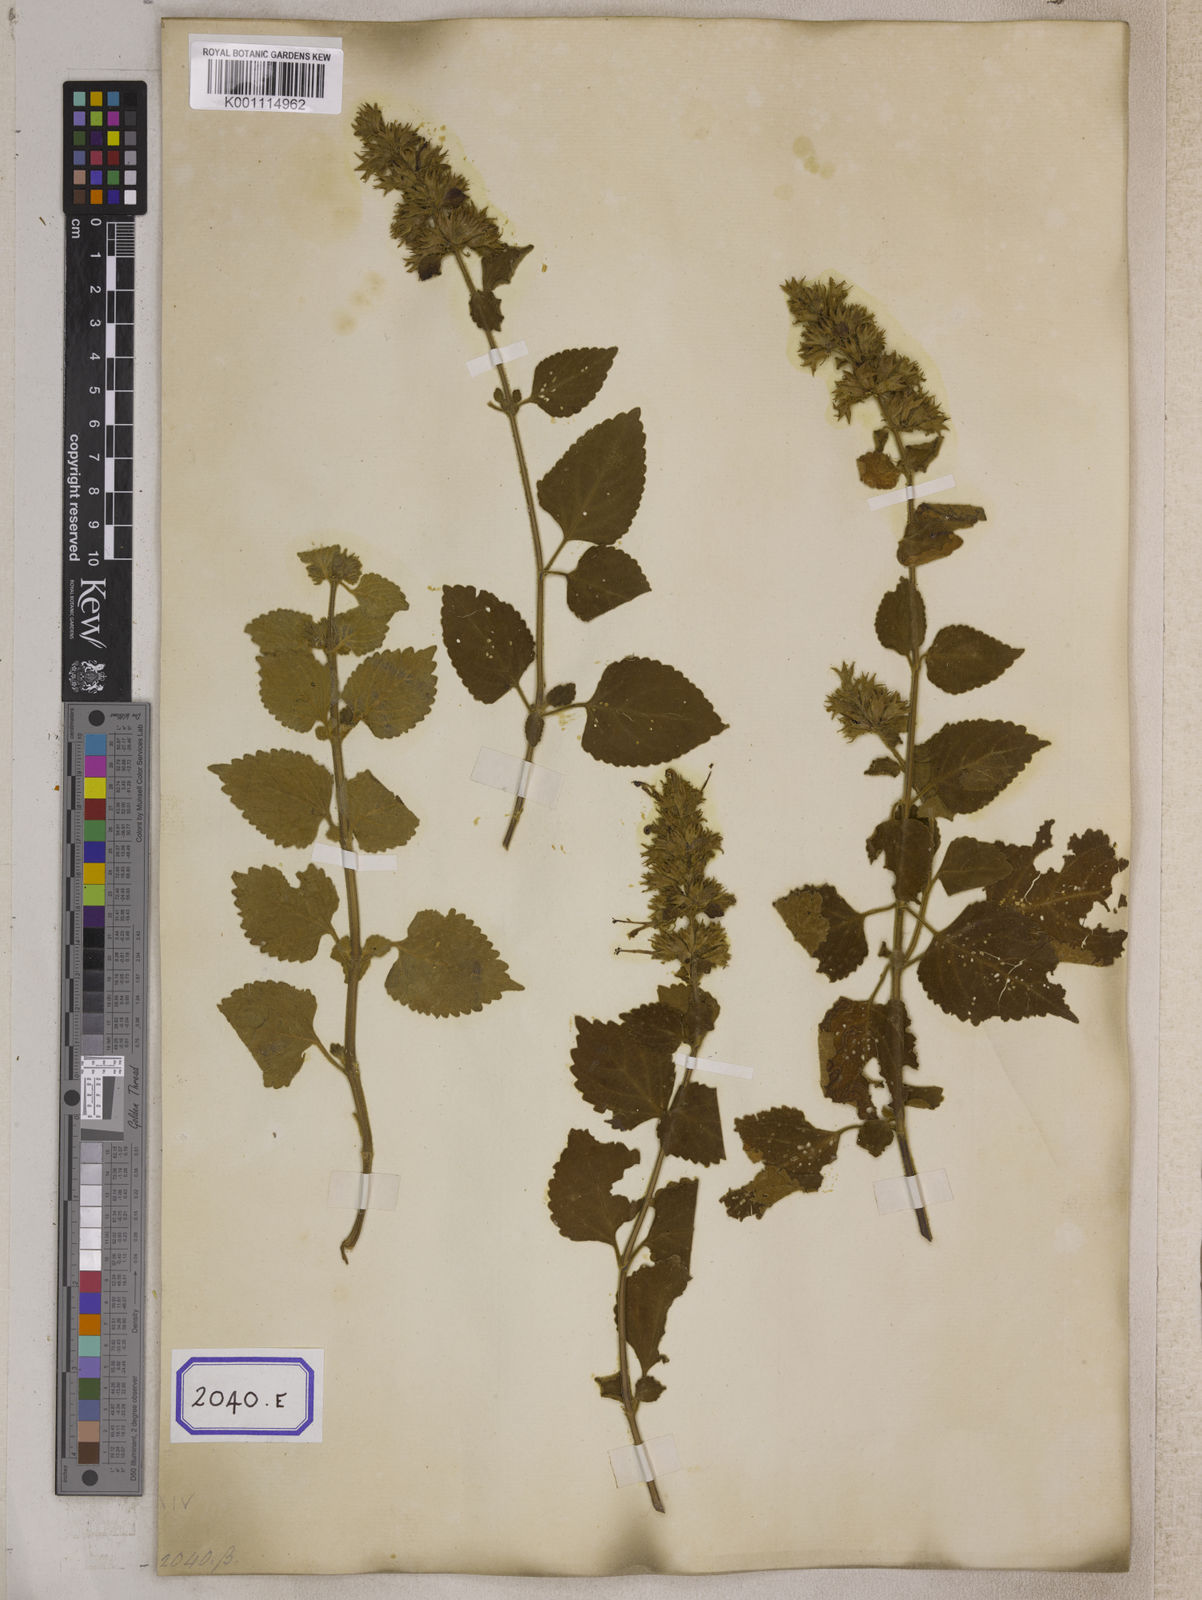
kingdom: Plantae
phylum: Tracheophyta
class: Magnoliopsida
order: Lamiales
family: Lamiaceae
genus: Anisomeles
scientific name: Anisomeles
